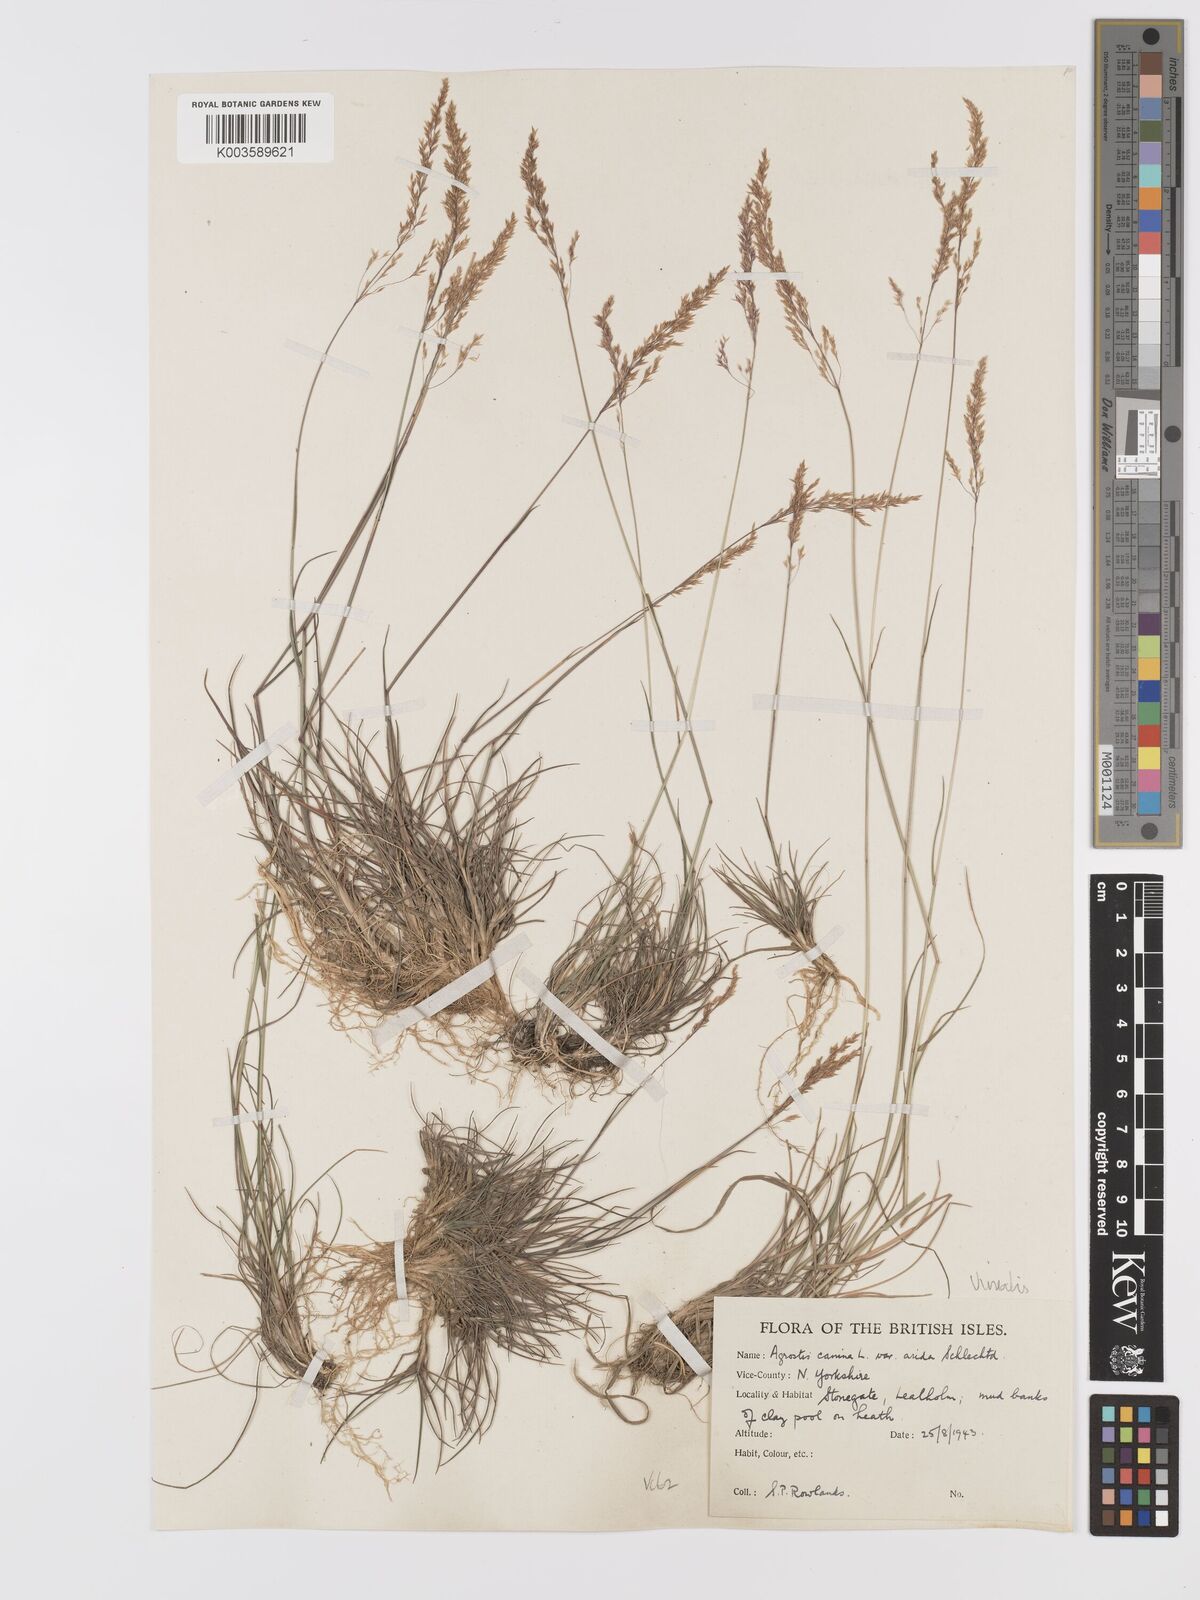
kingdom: Plantae
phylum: Tracheophyta
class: Liliopsida
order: Poales
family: Poaceae
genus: Agrostis
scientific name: Agrostis
